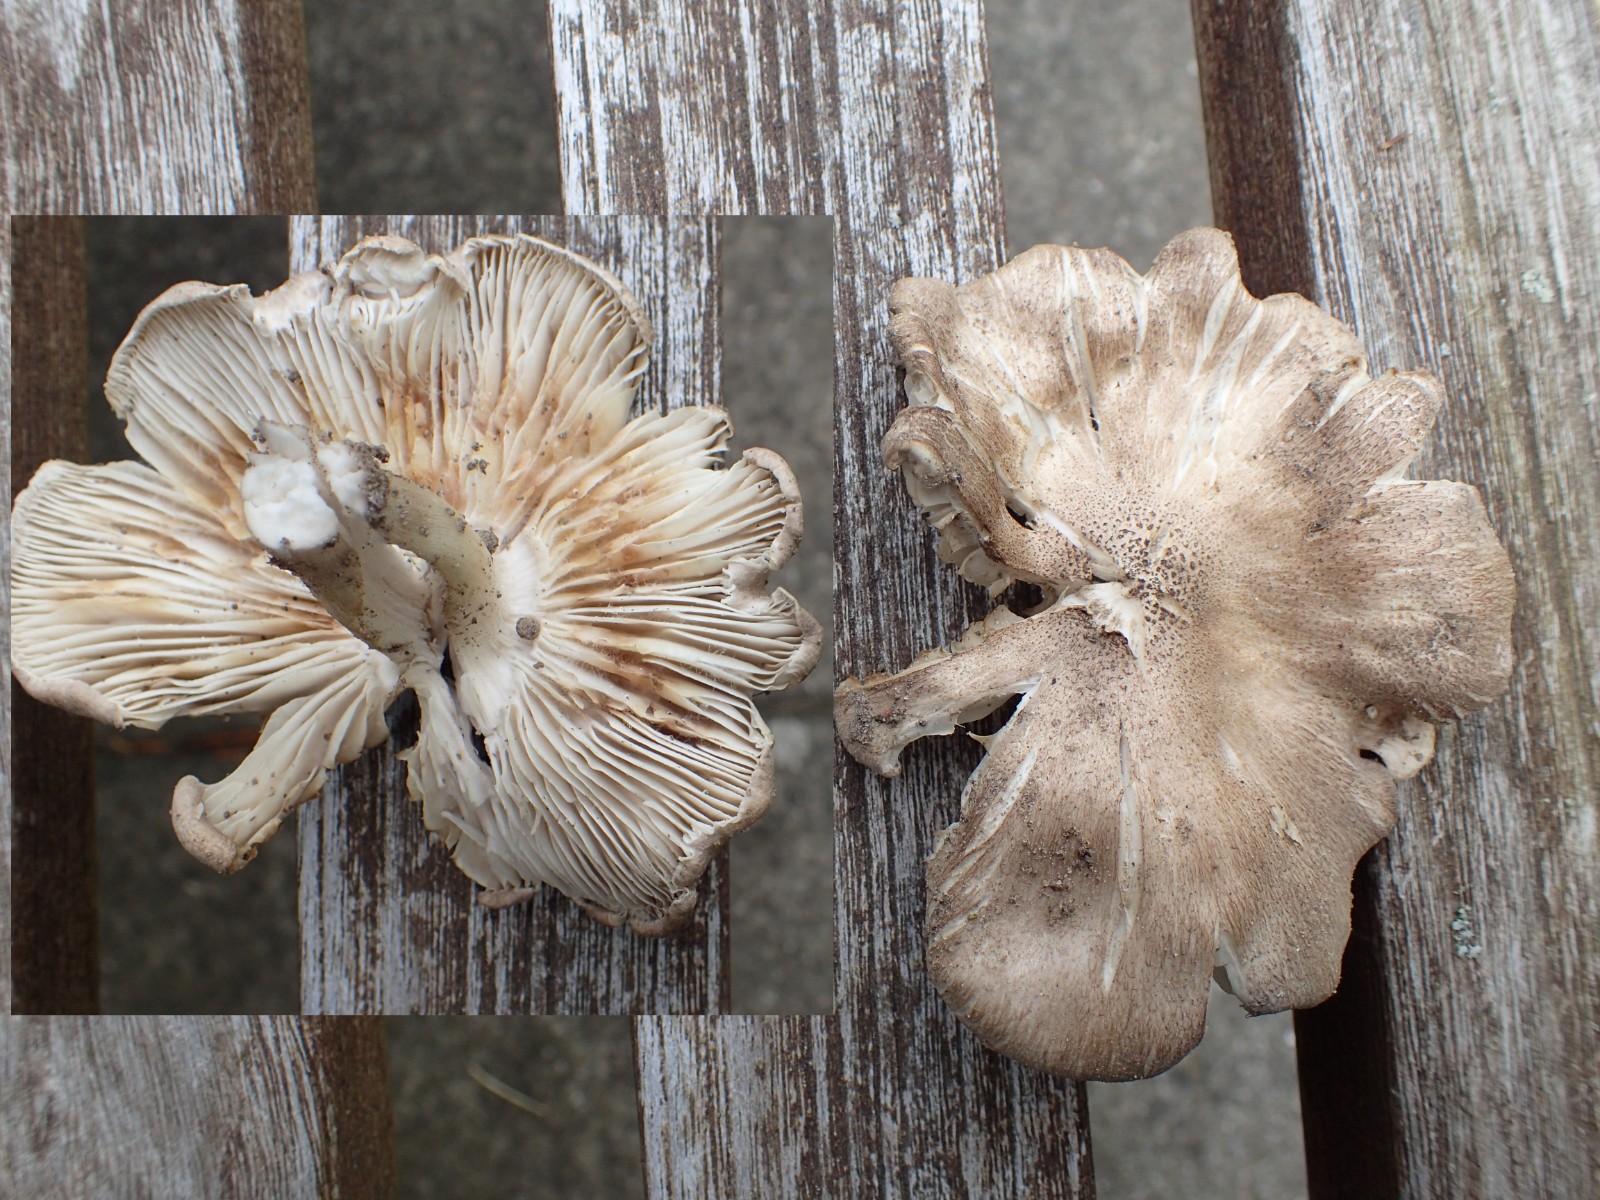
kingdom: Fungi
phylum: Basidiomycota
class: Agaricomycetes
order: Agaricales
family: Tricholomataceae
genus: Tricholoma
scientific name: Tricholoma
